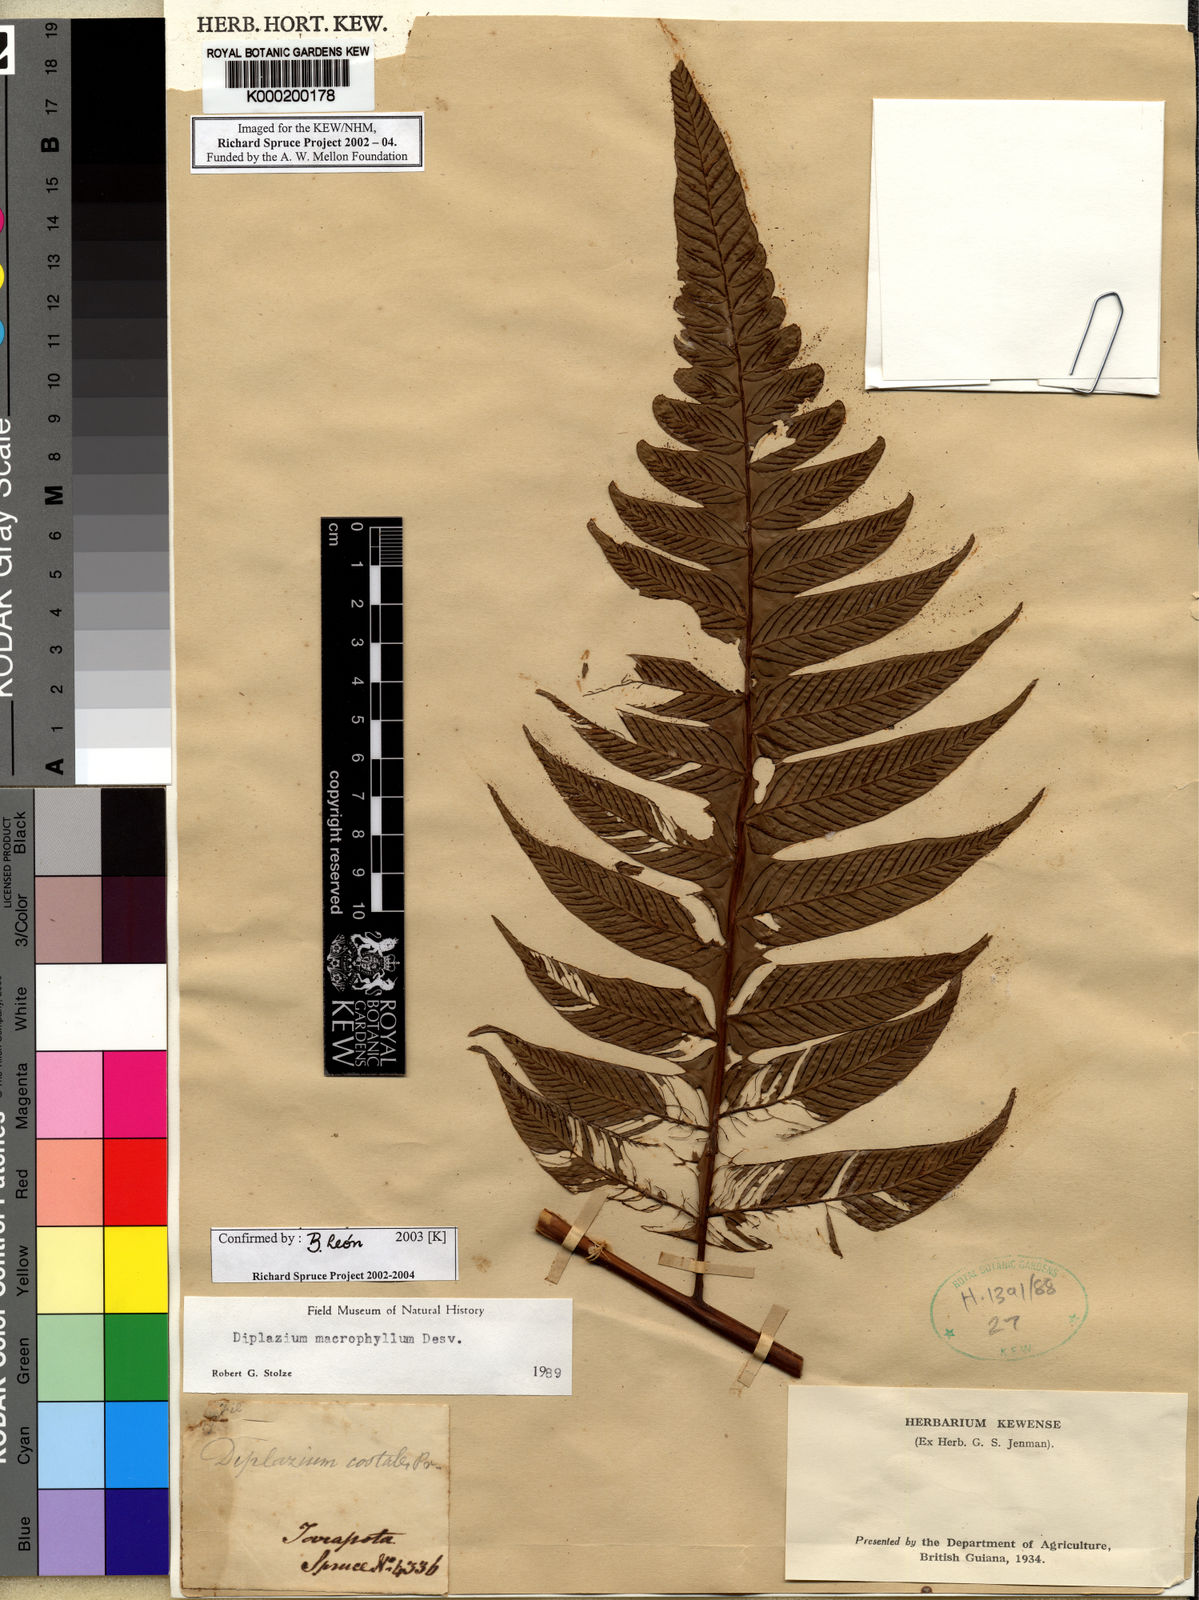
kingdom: Plantae
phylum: Tracheophyta
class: Polypodiopsida
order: Polypodiales
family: Athyriaceae
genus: Diplazium
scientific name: Diplazium macrophyllum
